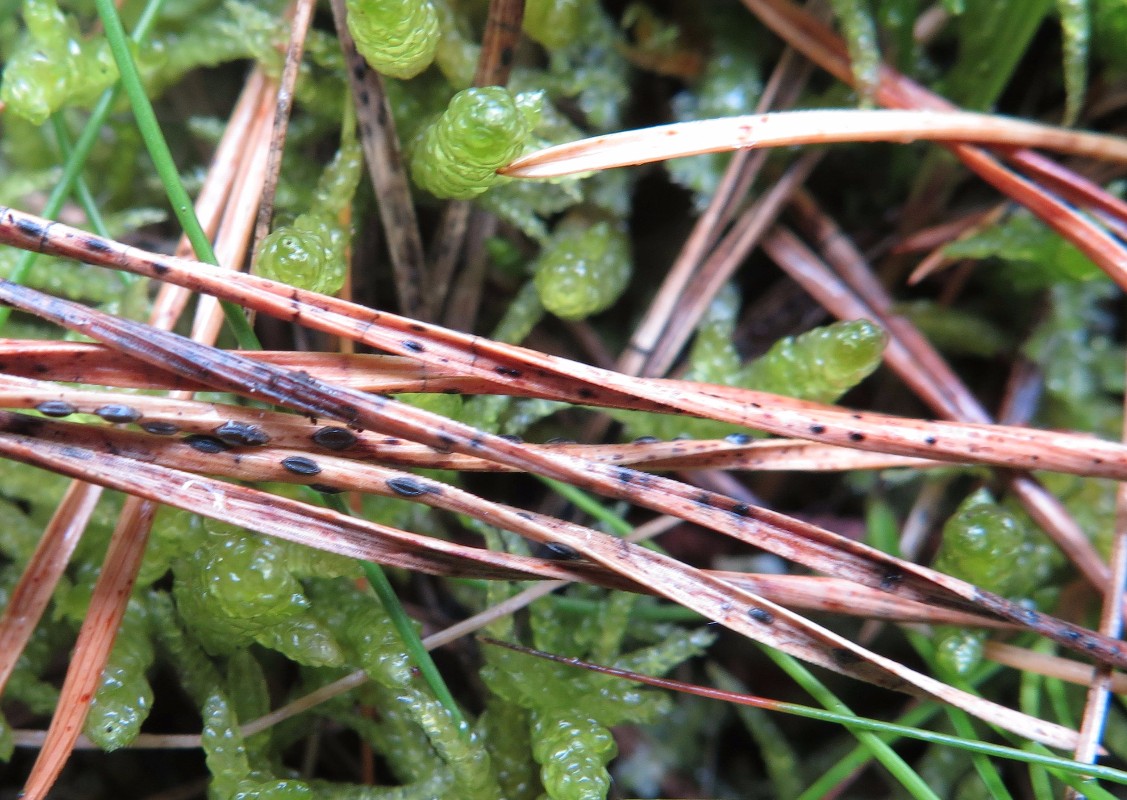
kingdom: Fungi
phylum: Ascomycota
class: Leotiomycetes
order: Rhytismatales
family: Rhytismataceae
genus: Lophodermium
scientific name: Lophodermium pinastri
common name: fyrre-fureplet
